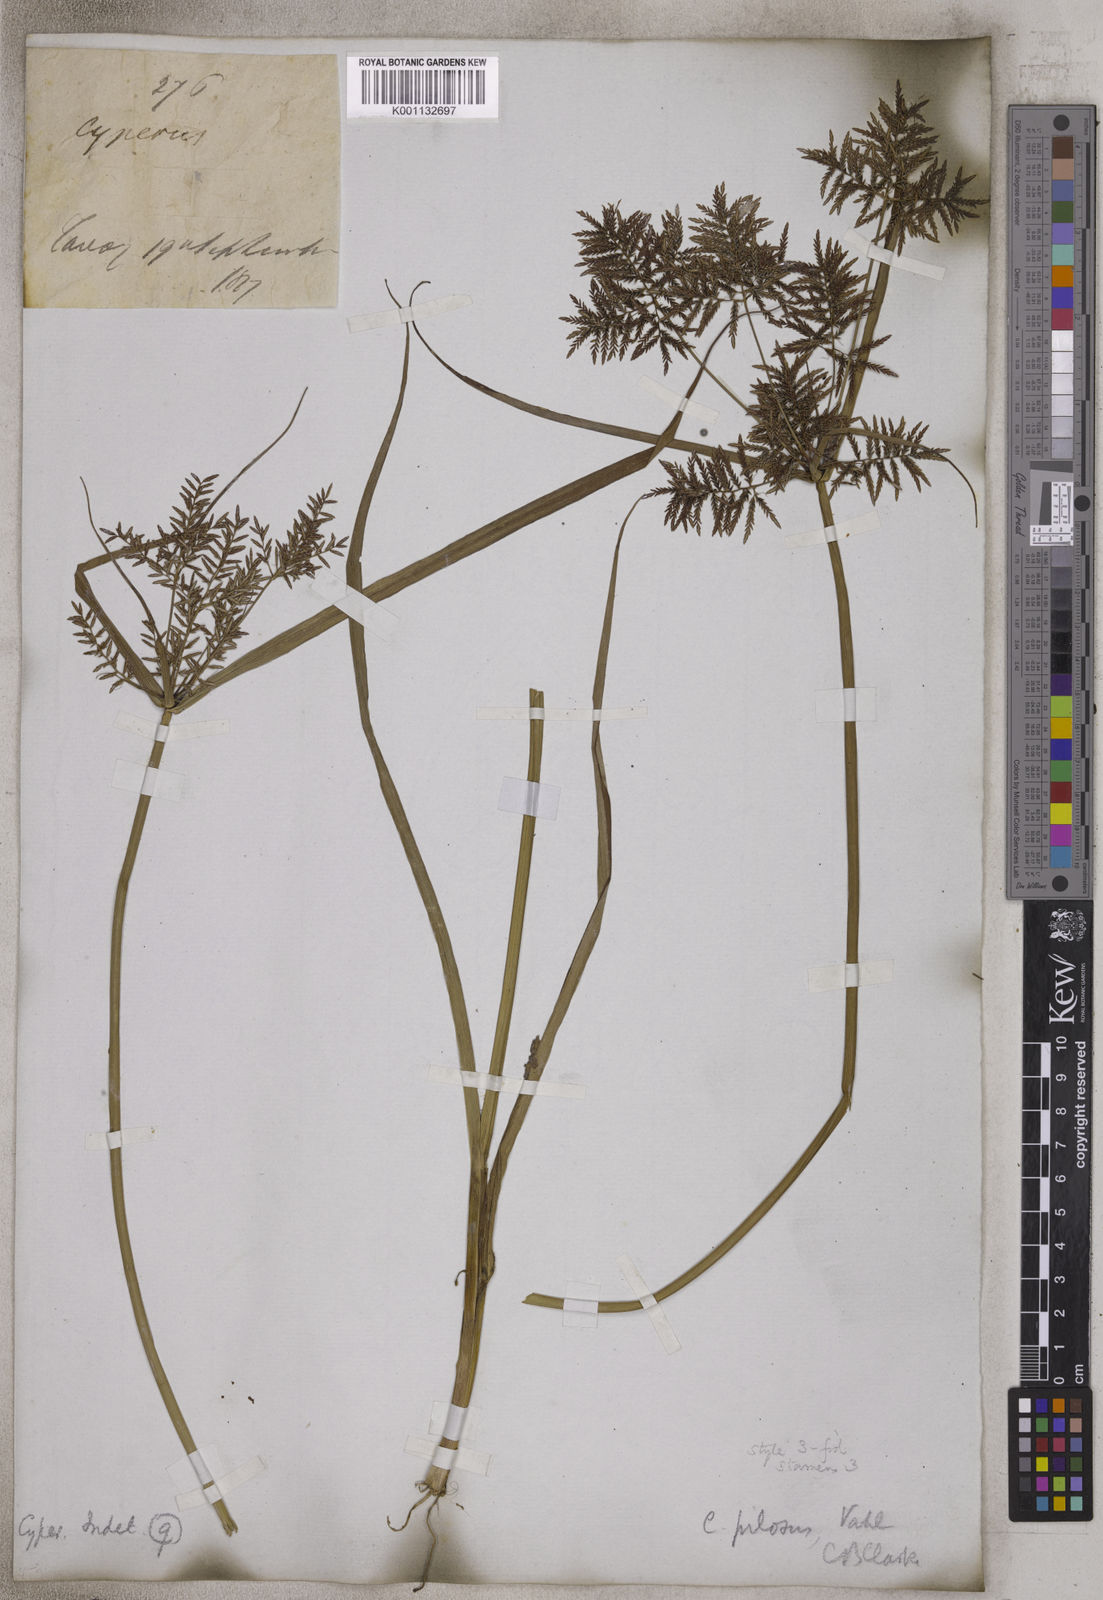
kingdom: Plantae
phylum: Tracheophyta
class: Liliopsida
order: Poales
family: Cyperaceae
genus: Cyperus
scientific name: Cyperus pilosus
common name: Fuzzy flatsedge
